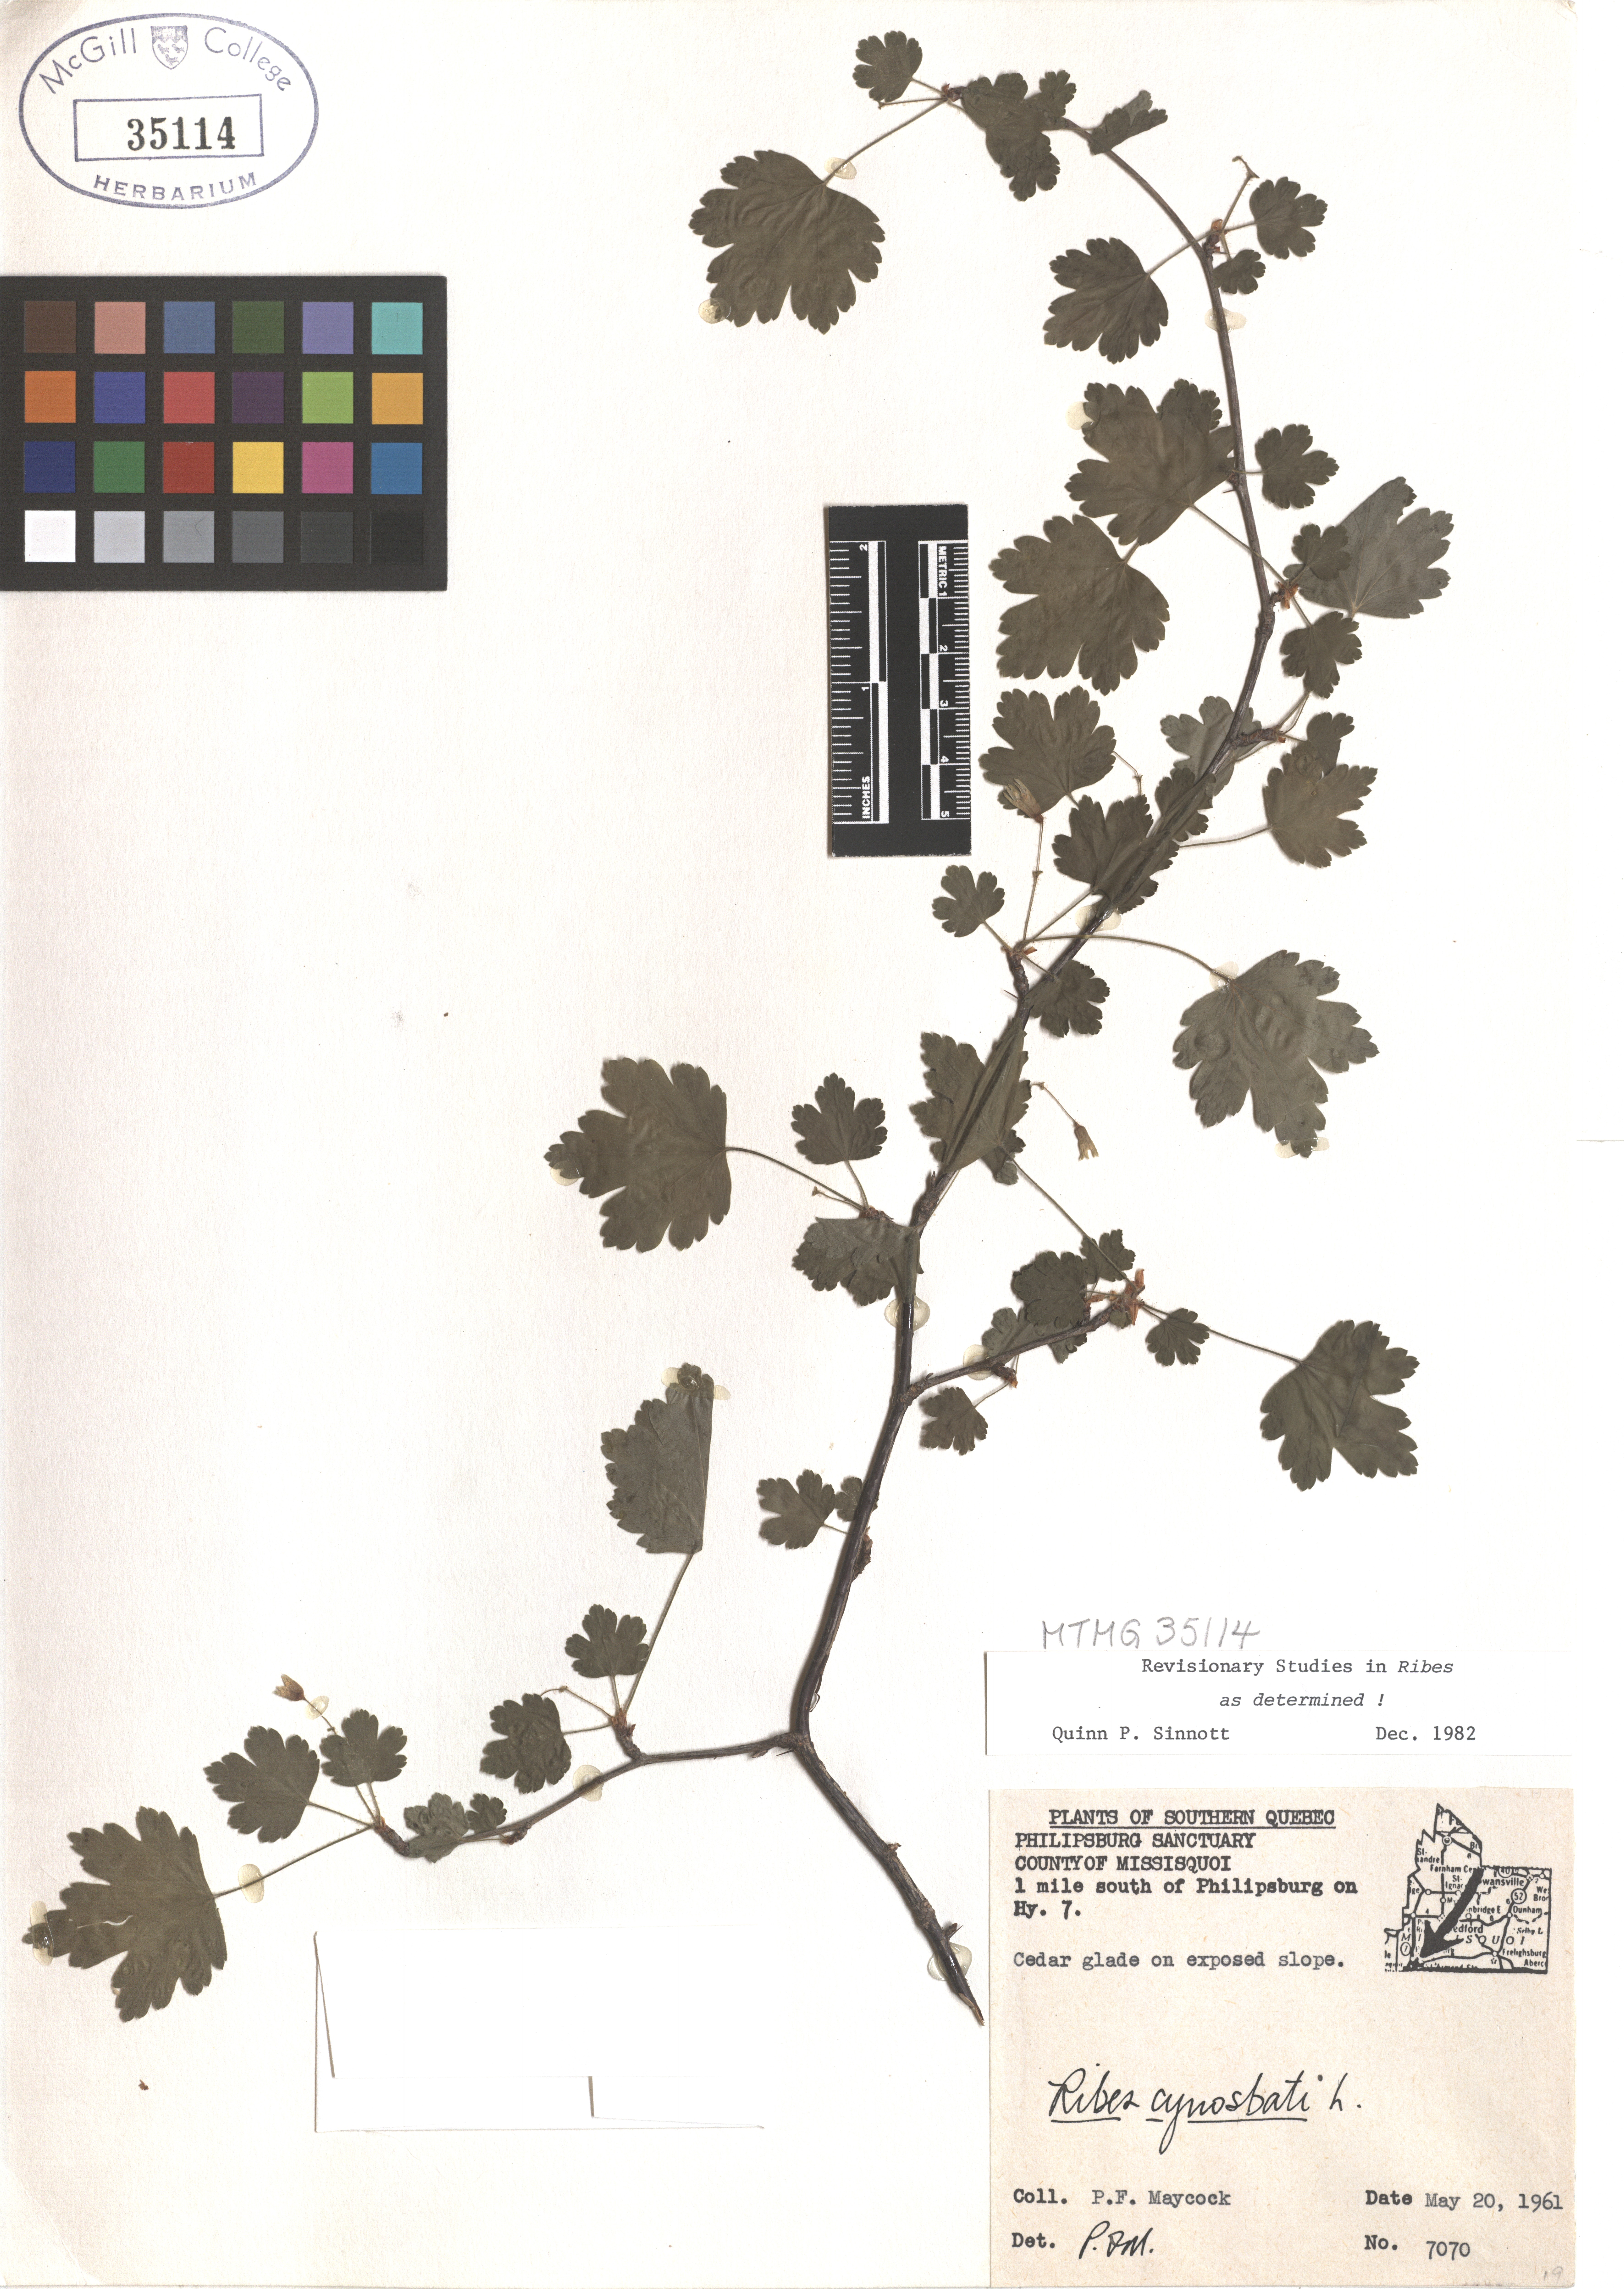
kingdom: Plantae
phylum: Tracheophyta
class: Magnoliopsida
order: Saxifragales
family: Grossulariaceae
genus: Ribes
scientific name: Ribes cynosbati
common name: American gooseberry
